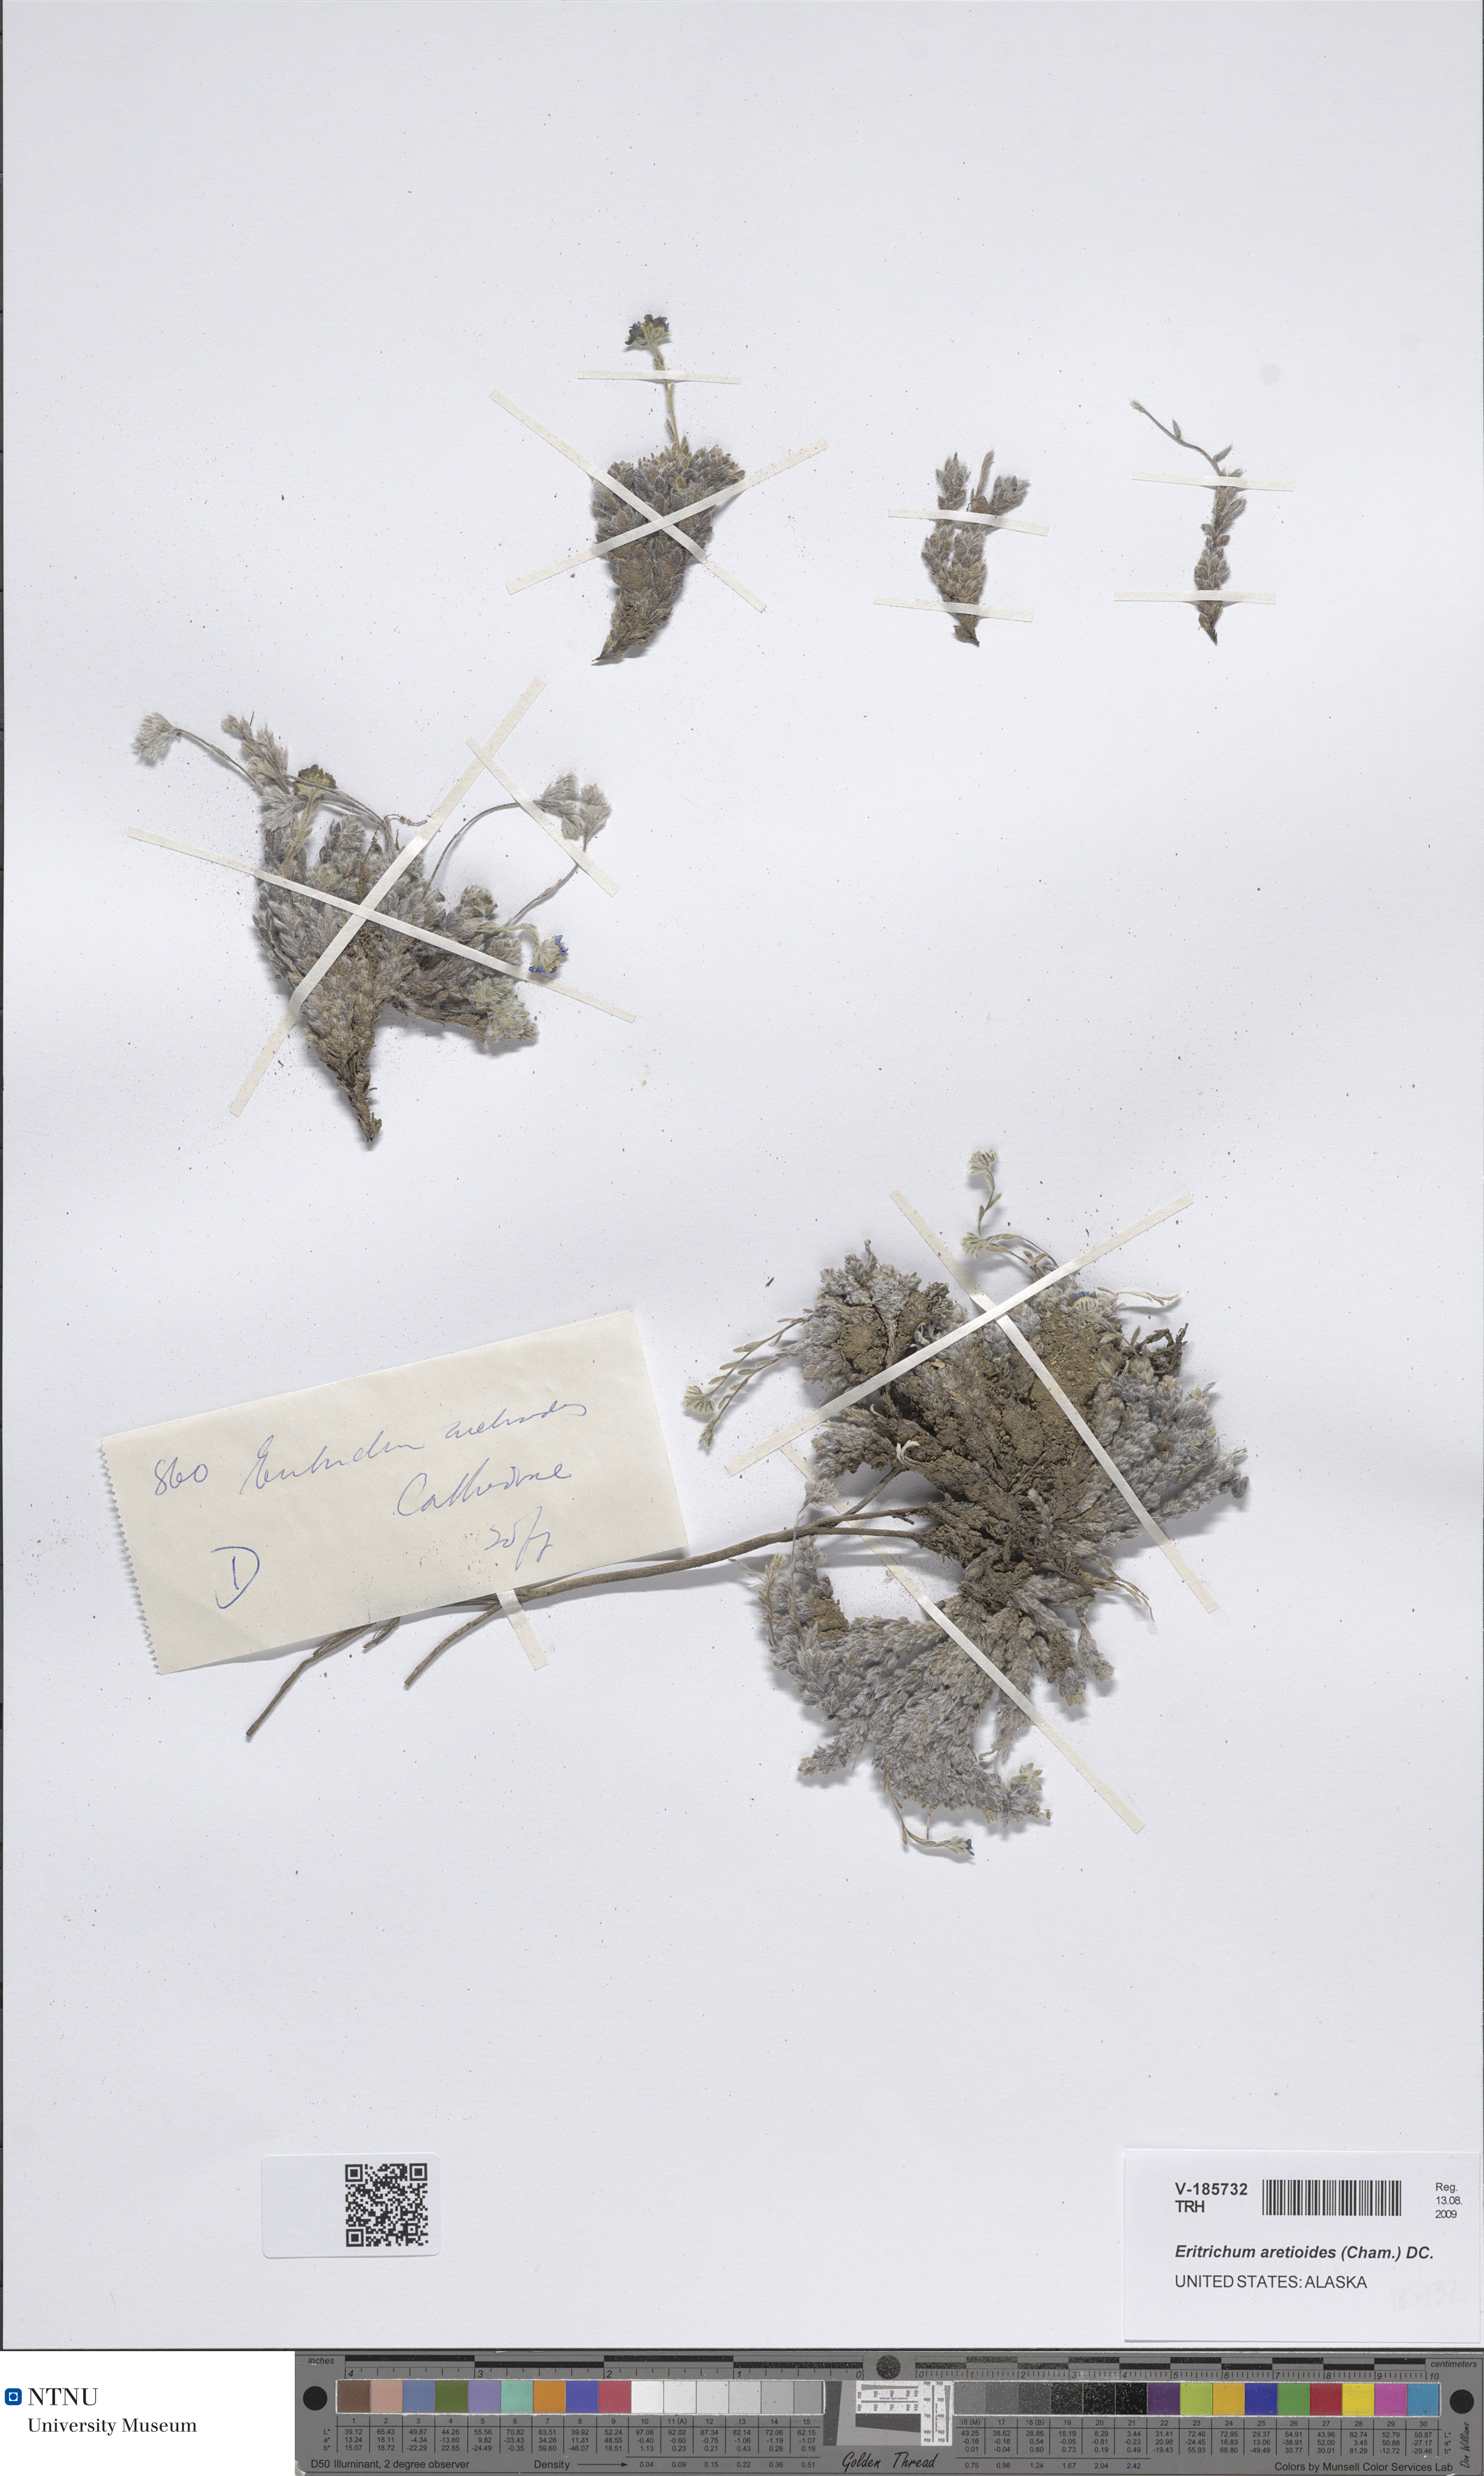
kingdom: Plantae
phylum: Tracheophyta
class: Magnoliopsida
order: Boraginales
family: Boraginaceae
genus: Eritrichium
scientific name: Eritrichium aretioides
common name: Arctic-alpine forget-me-not
